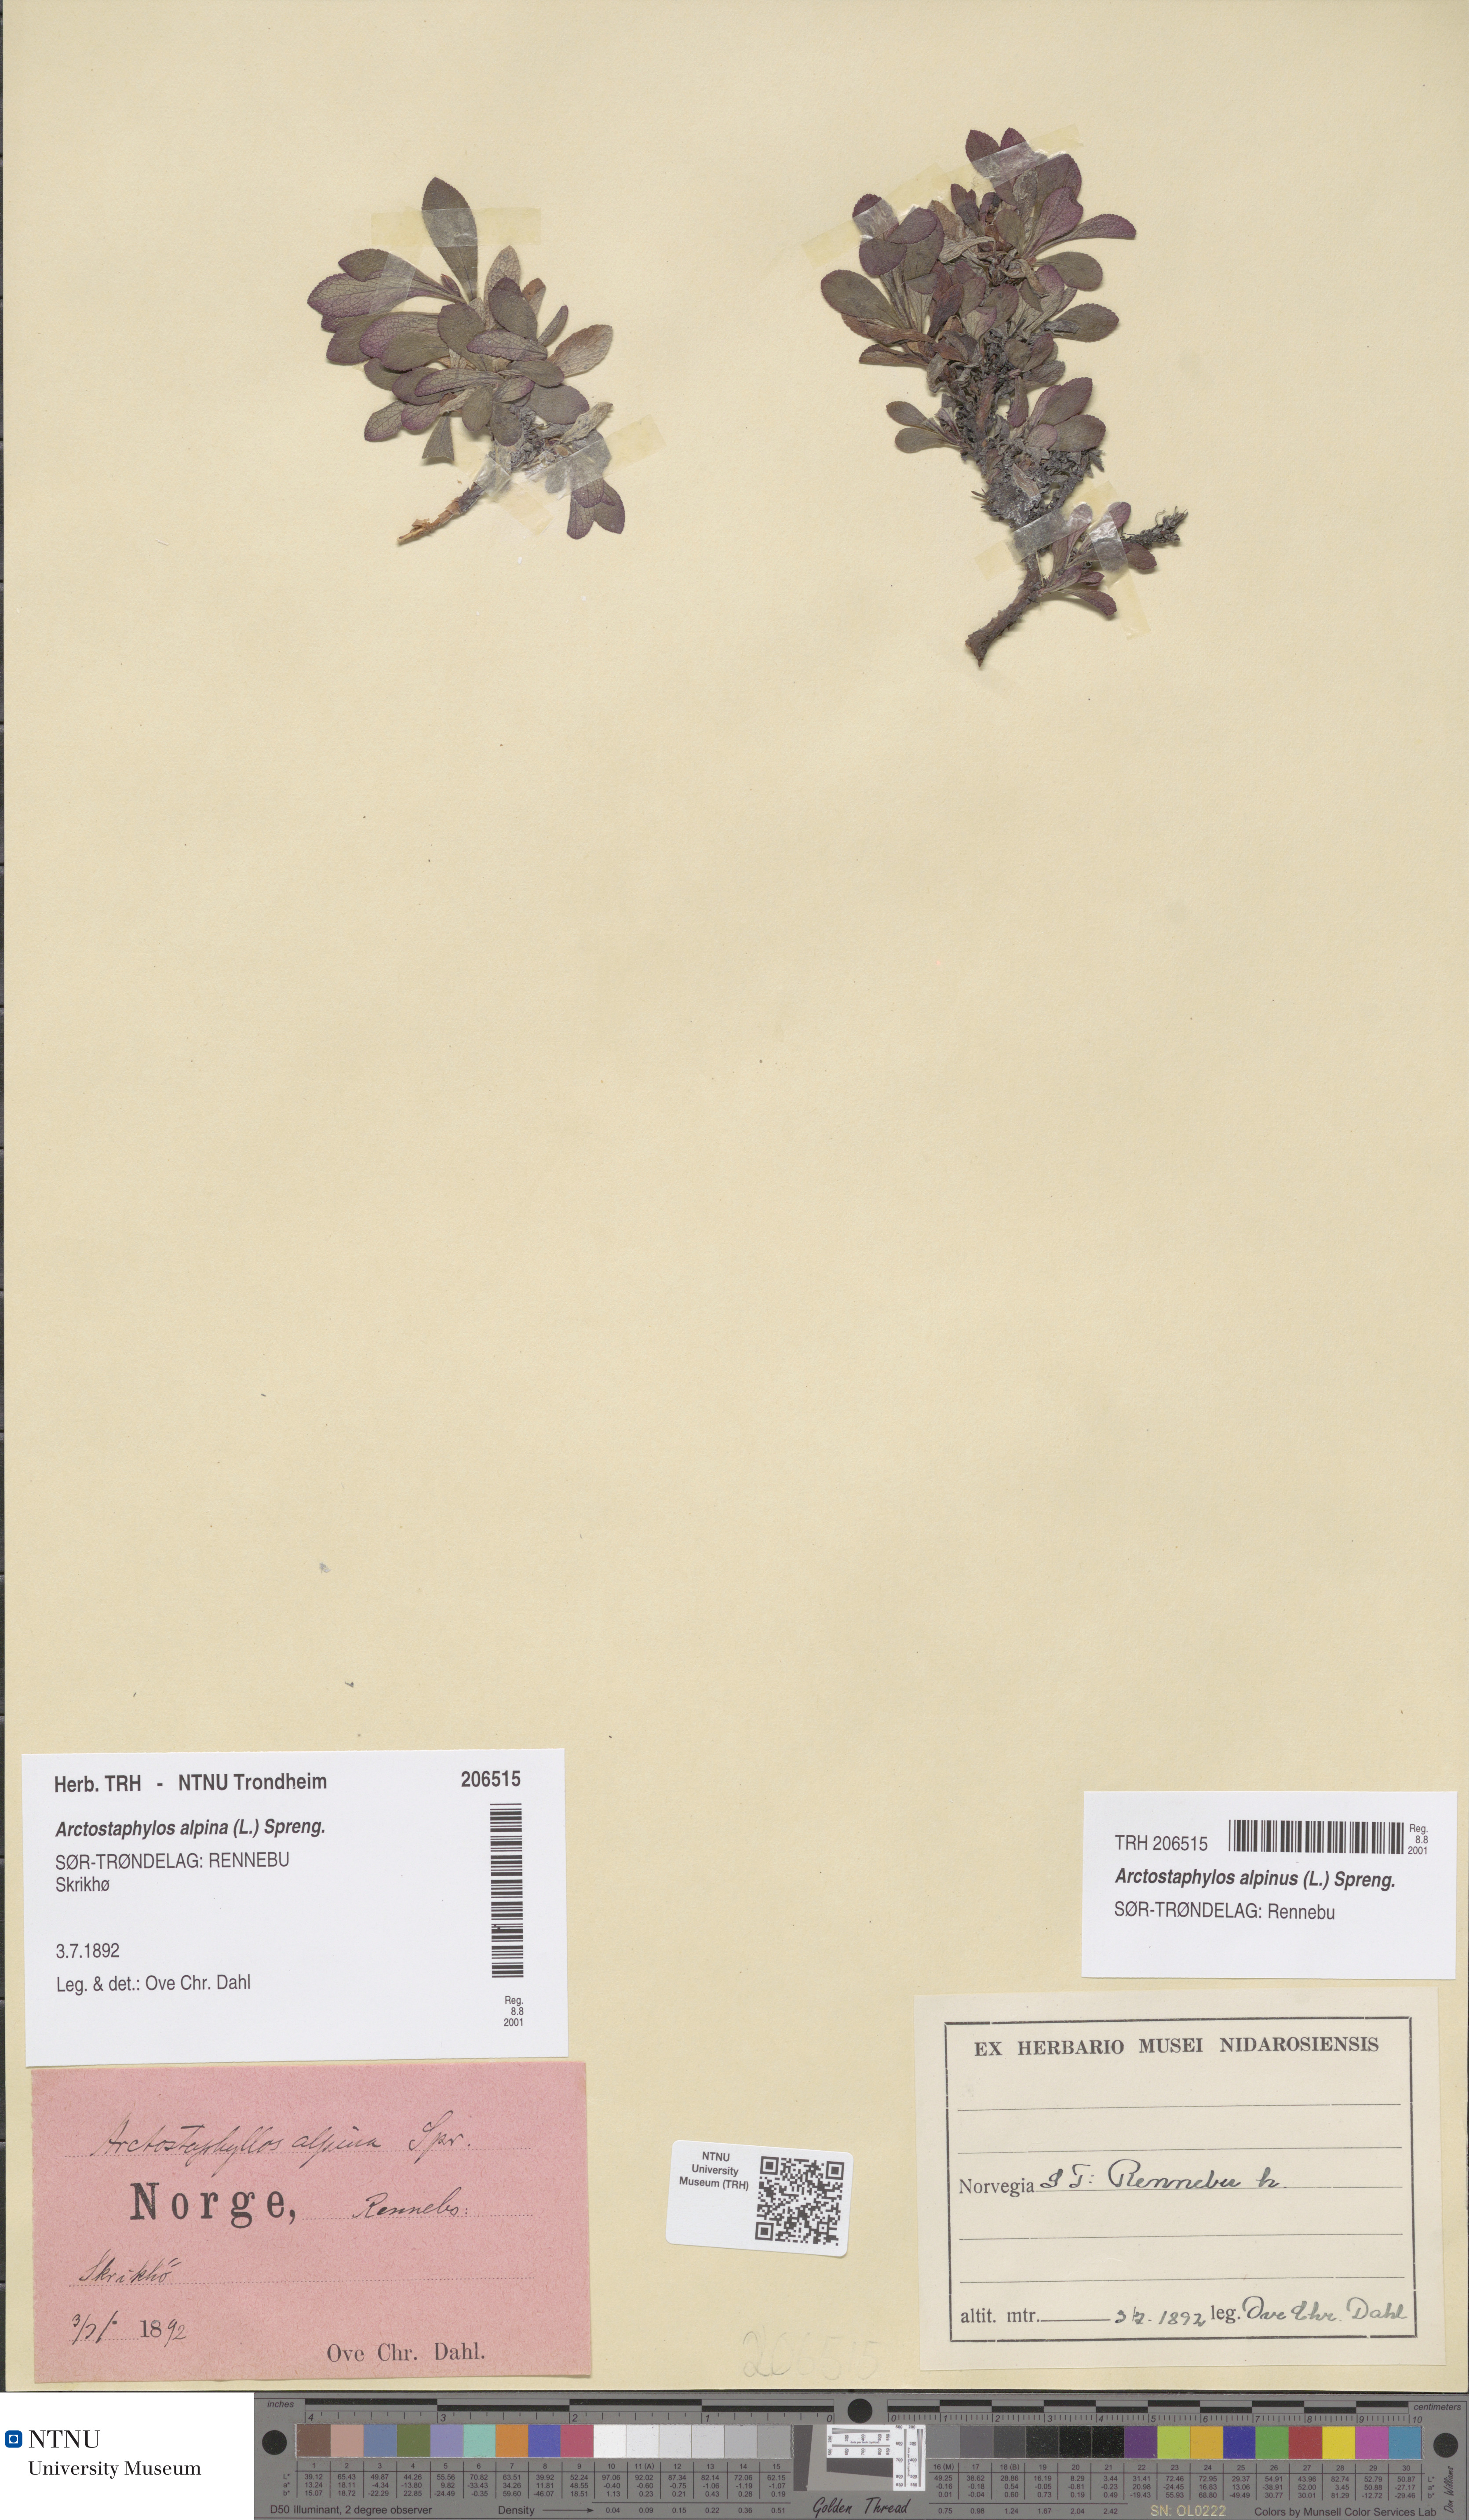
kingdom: Plantae
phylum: Tracheophyta
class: Magnoliopsida
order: Ericales
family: Ericaceae
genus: Arctostaphylos
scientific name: Arctostaphylos alpinus
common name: Alpine bearberry
